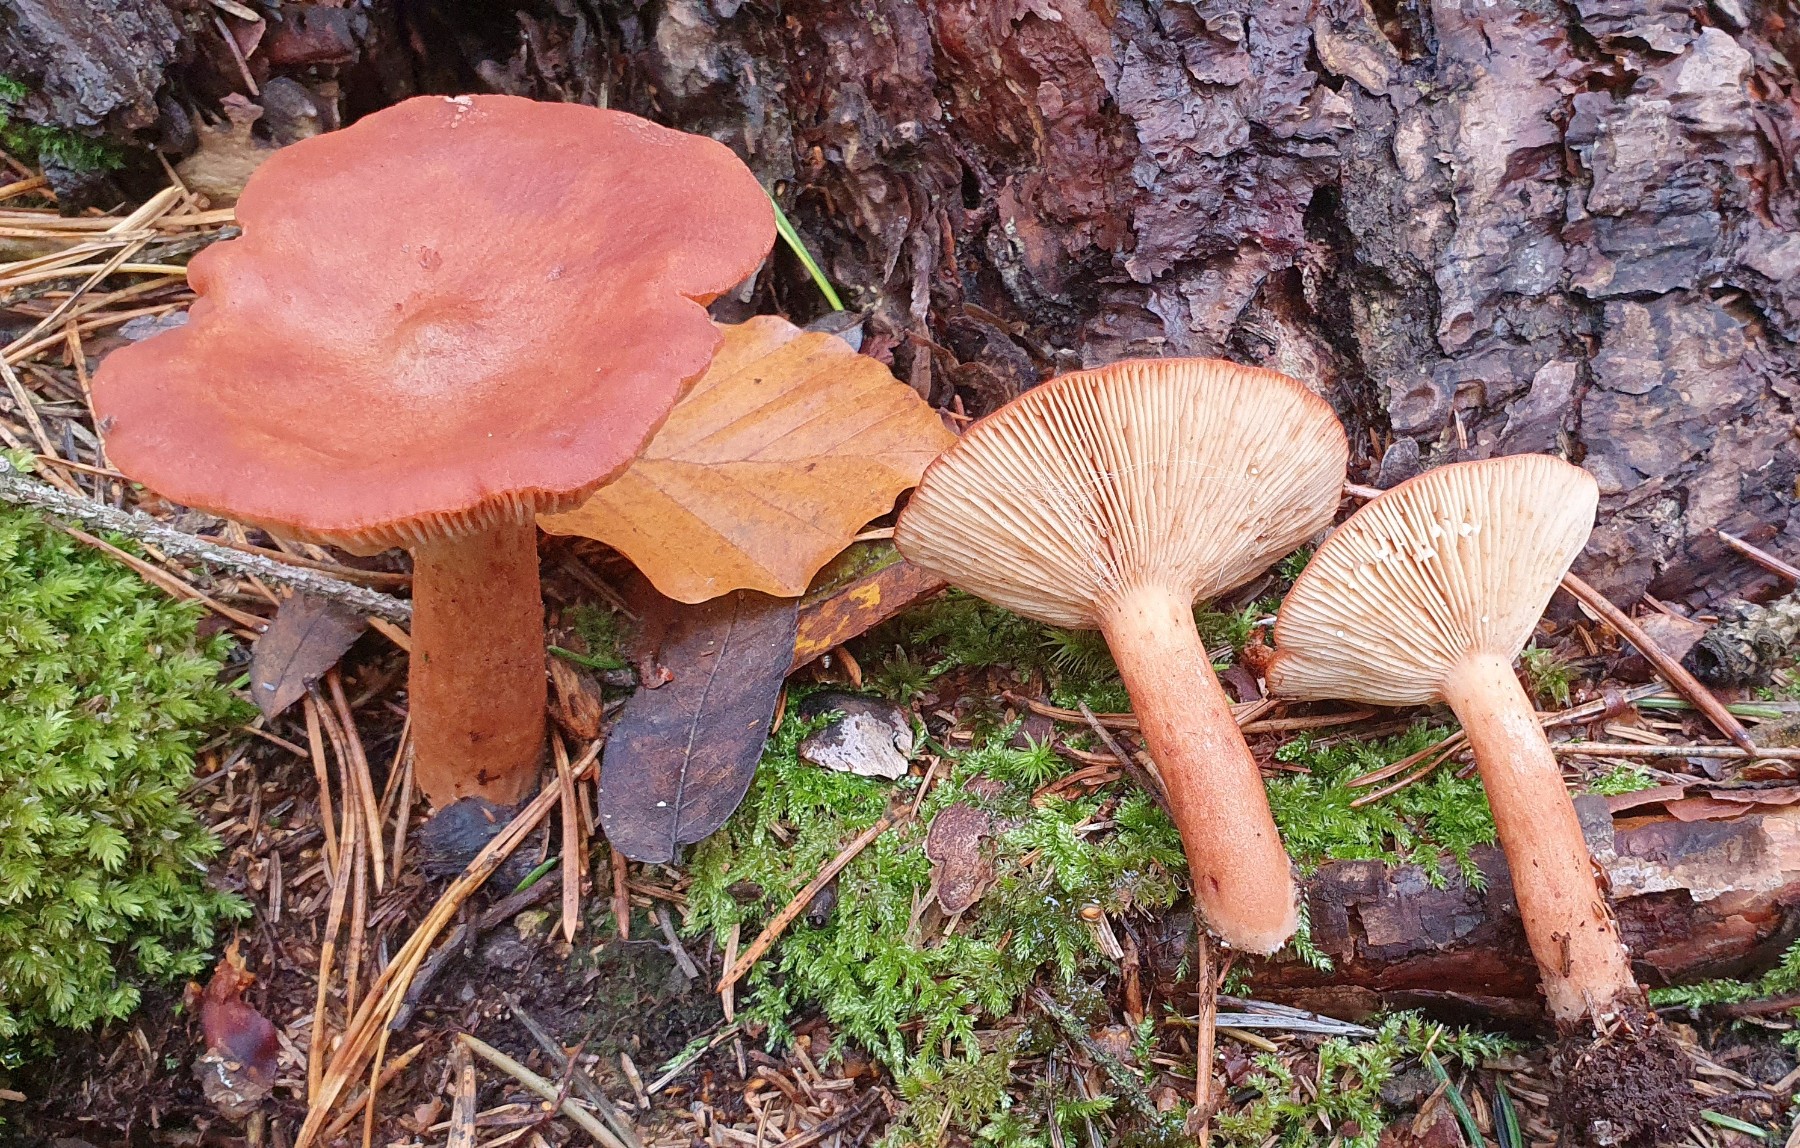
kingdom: Fungi
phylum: Basidiomycota
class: Agaricomycetes
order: Russulales
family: Russulaceae
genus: Lactarius
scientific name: Lactarius rufus
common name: rødbrun mælkehat
